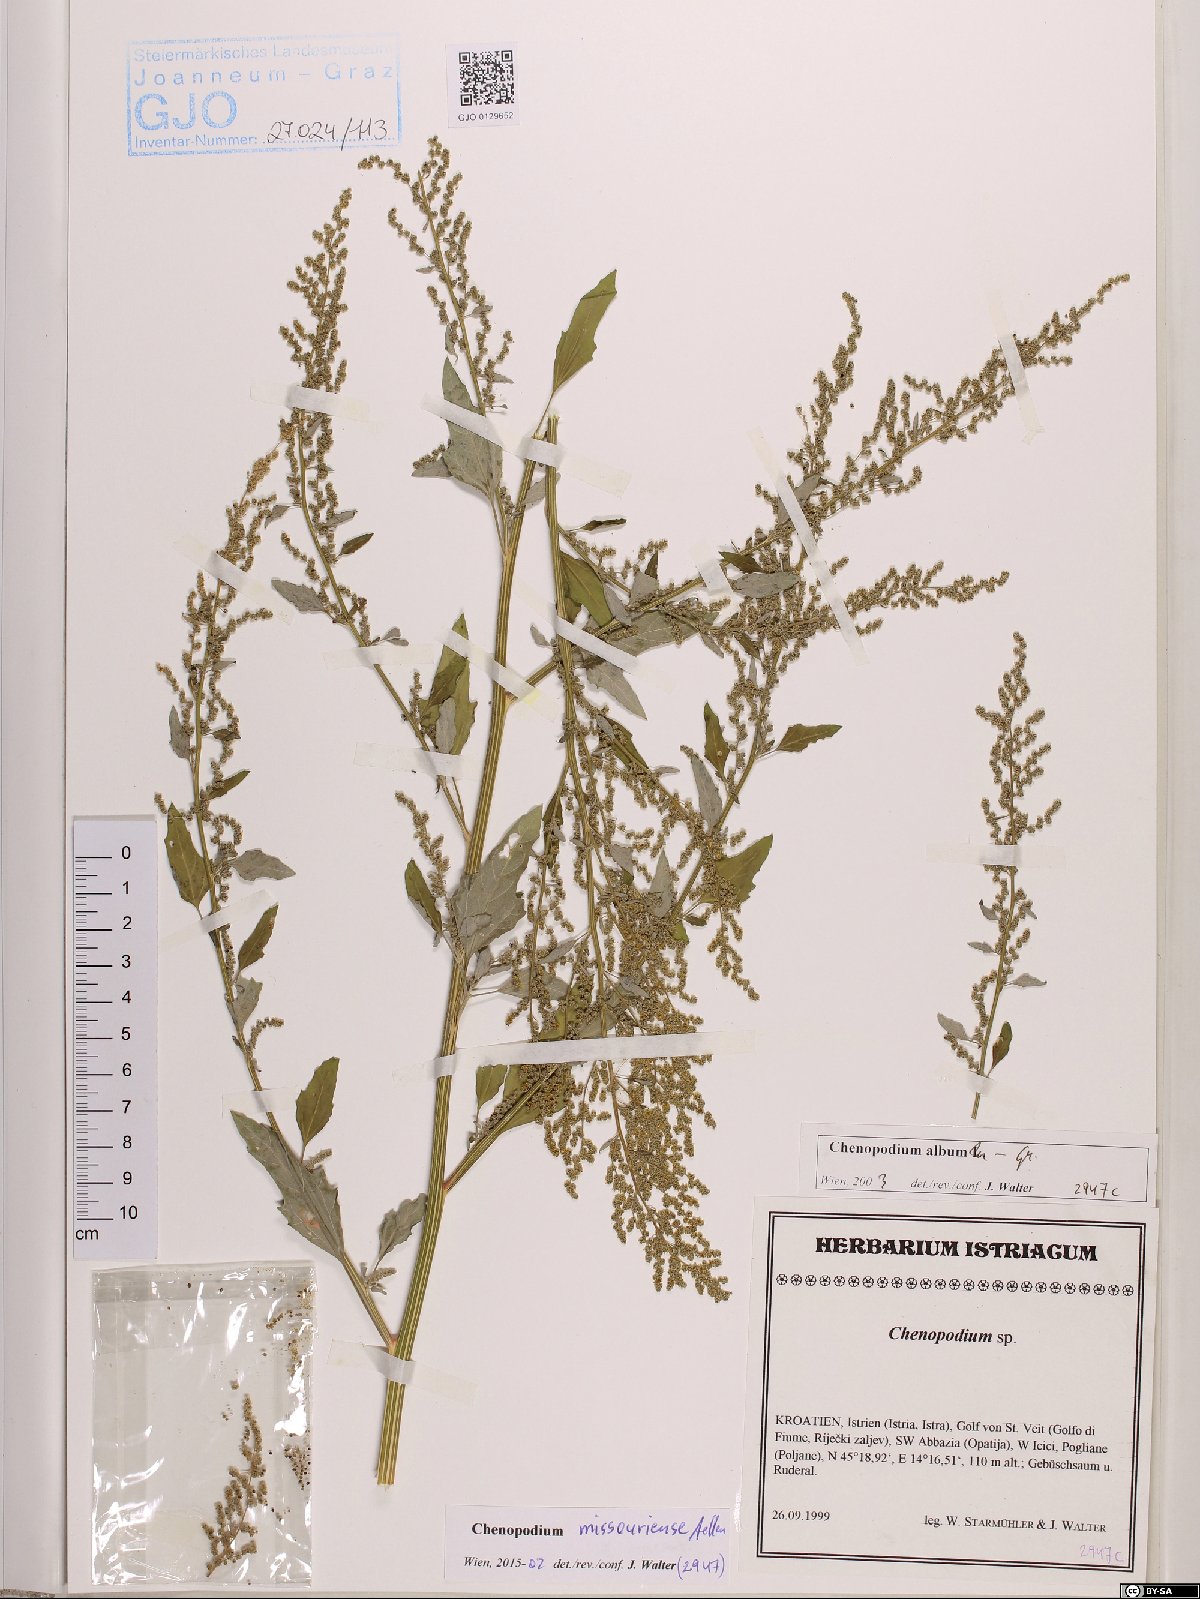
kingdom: Plantae
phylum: Tracheophyta
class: Magnoliopsida
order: Caryophyllales
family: Amaranthaceae
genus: Chenopodium
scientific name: Chenopodium album
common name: Fat-hen
